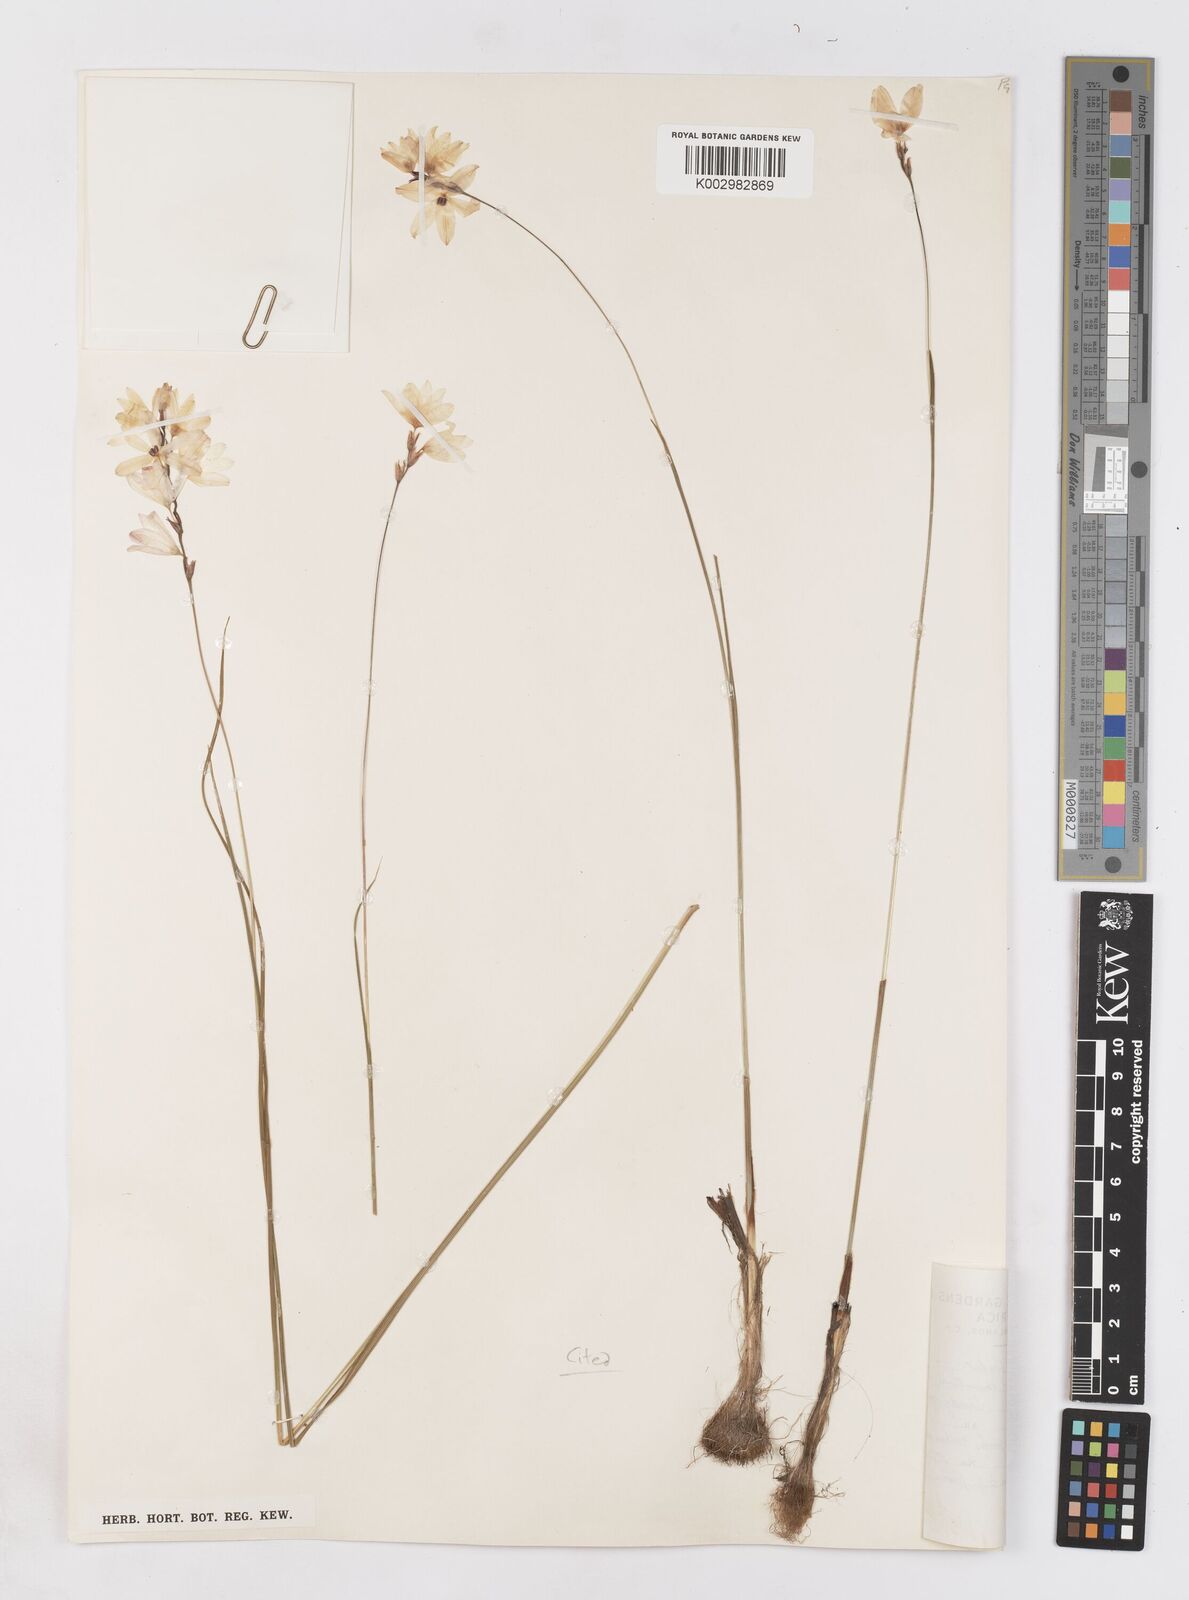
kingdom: Plantae
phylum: Tracheophyta
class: Liliopsida
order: Asparagales
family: Iridaceae
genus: Ixia
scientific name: Ixia micrandra
